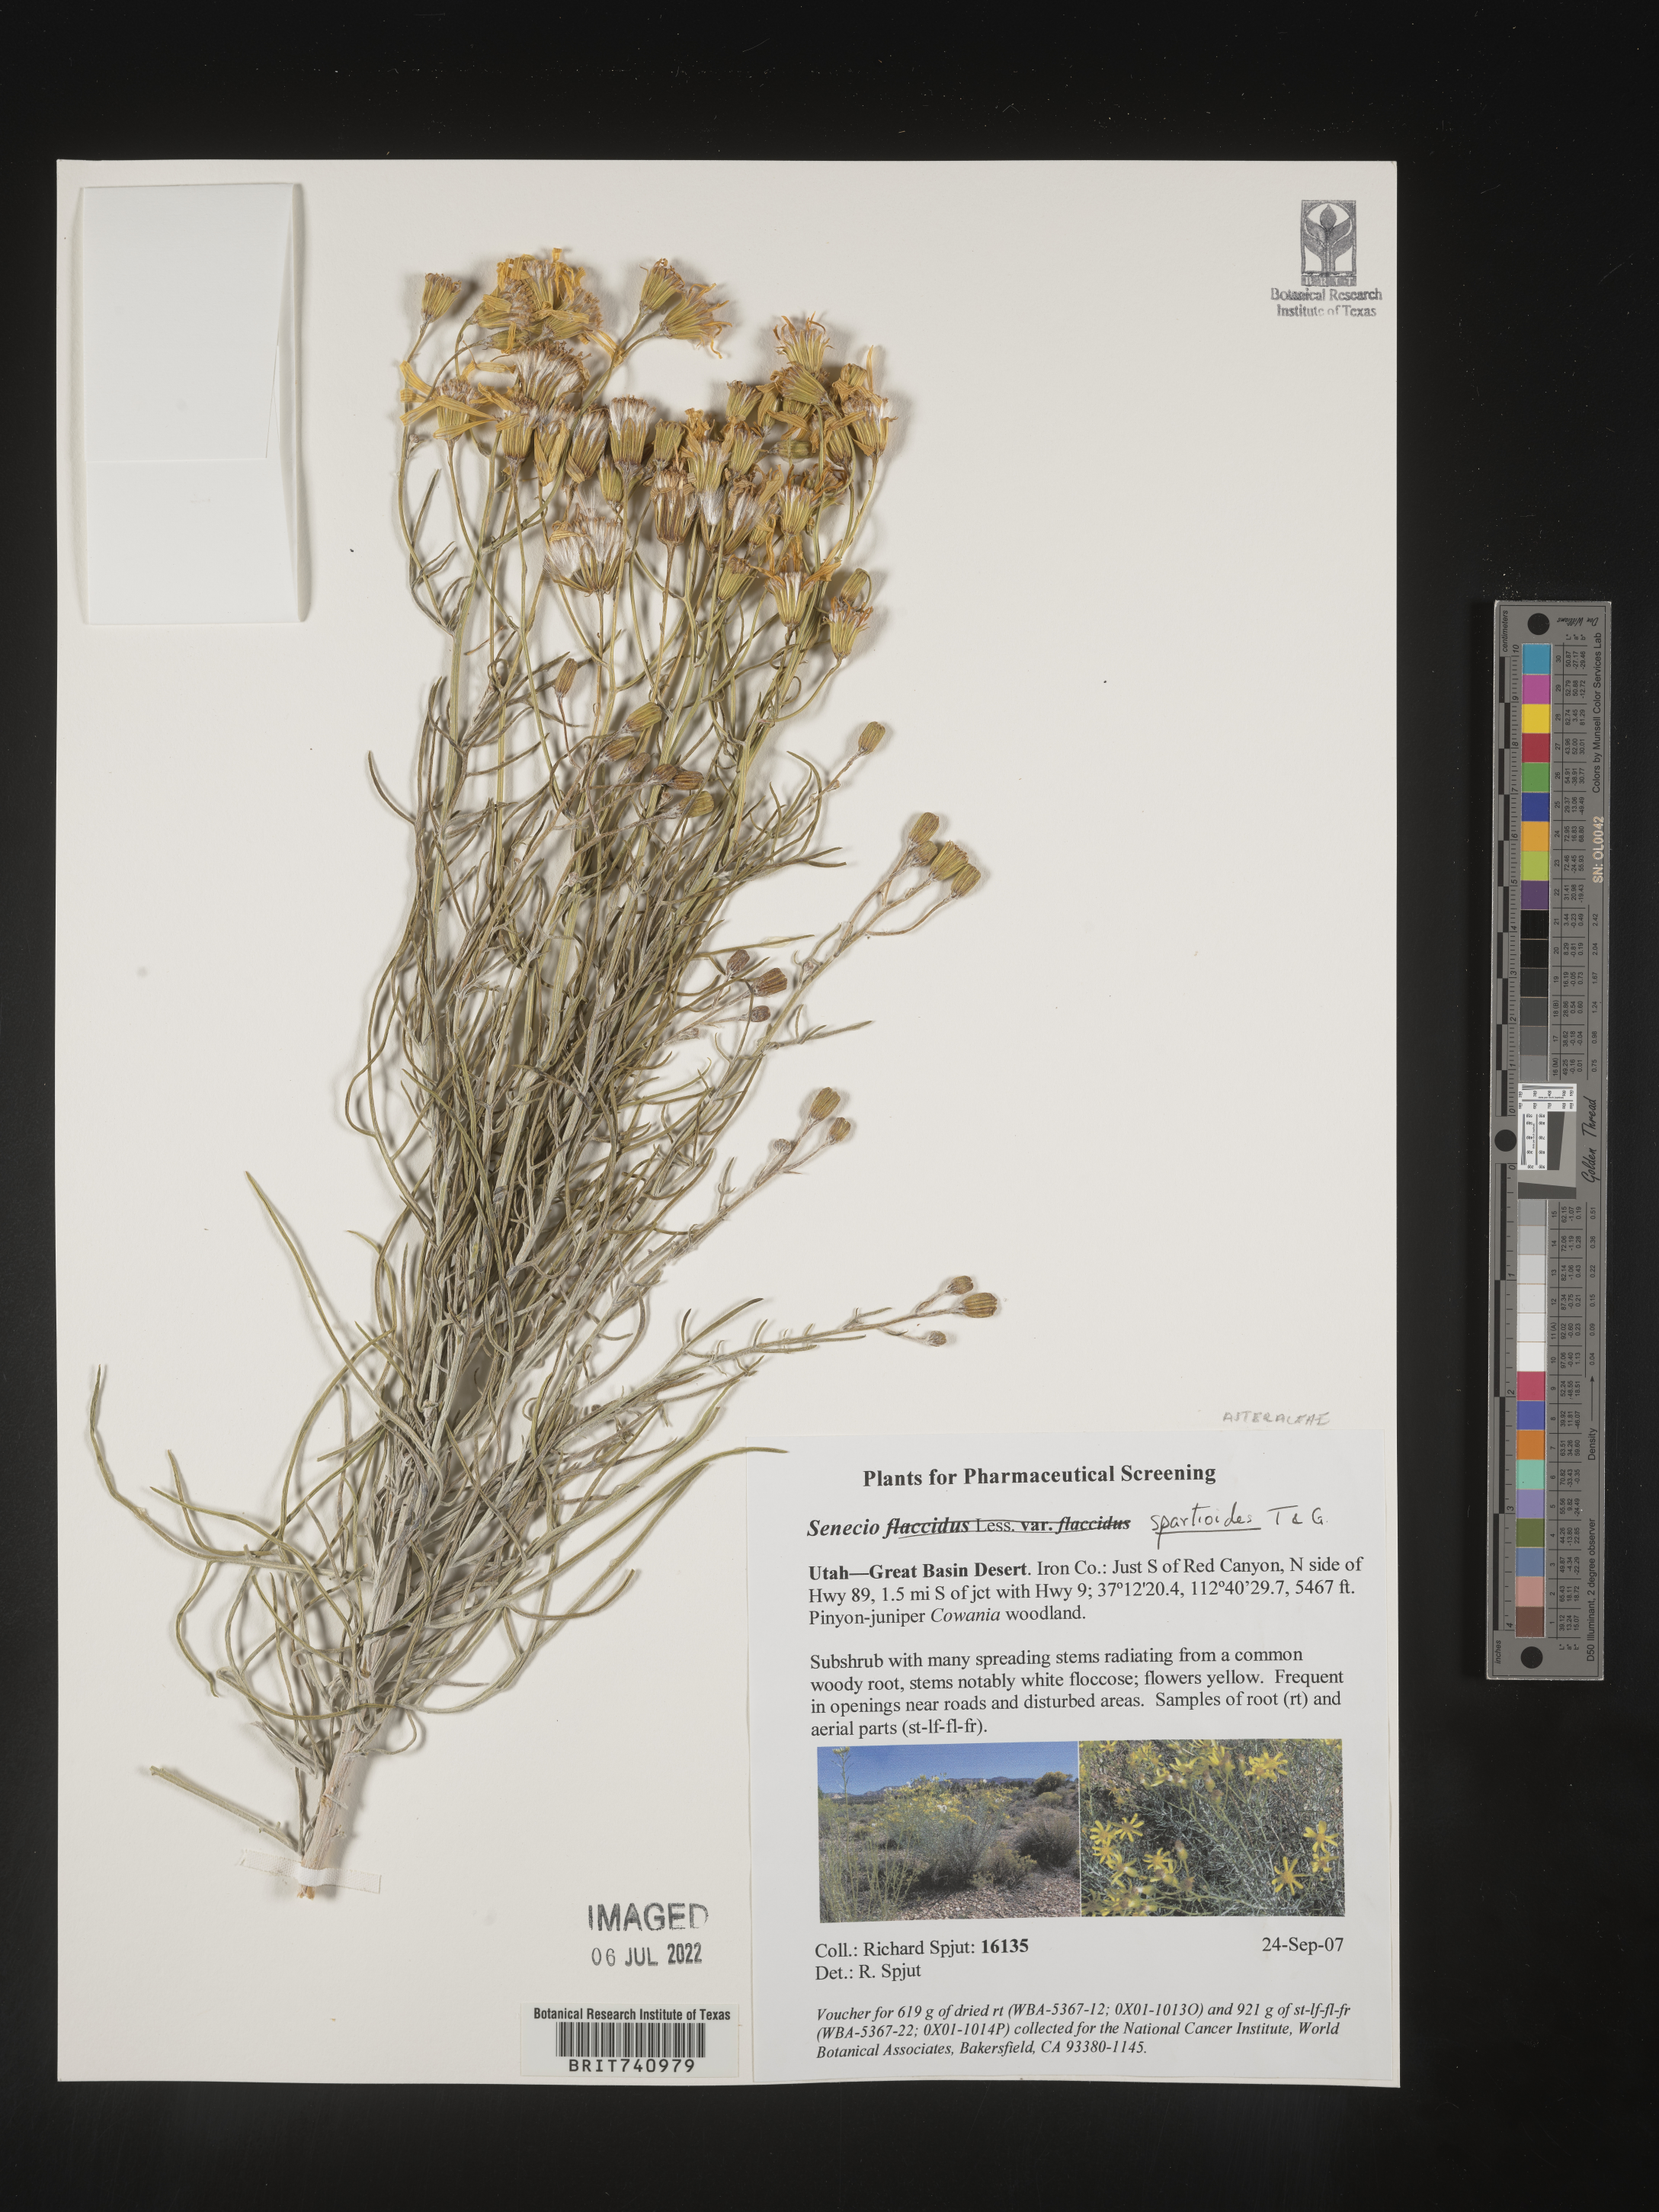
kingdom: Plantae
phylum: Tracheophyta
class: Magnoliopsida
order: Asterales
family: Asteraceae
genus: Senecio
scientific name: Senecio spartioides
